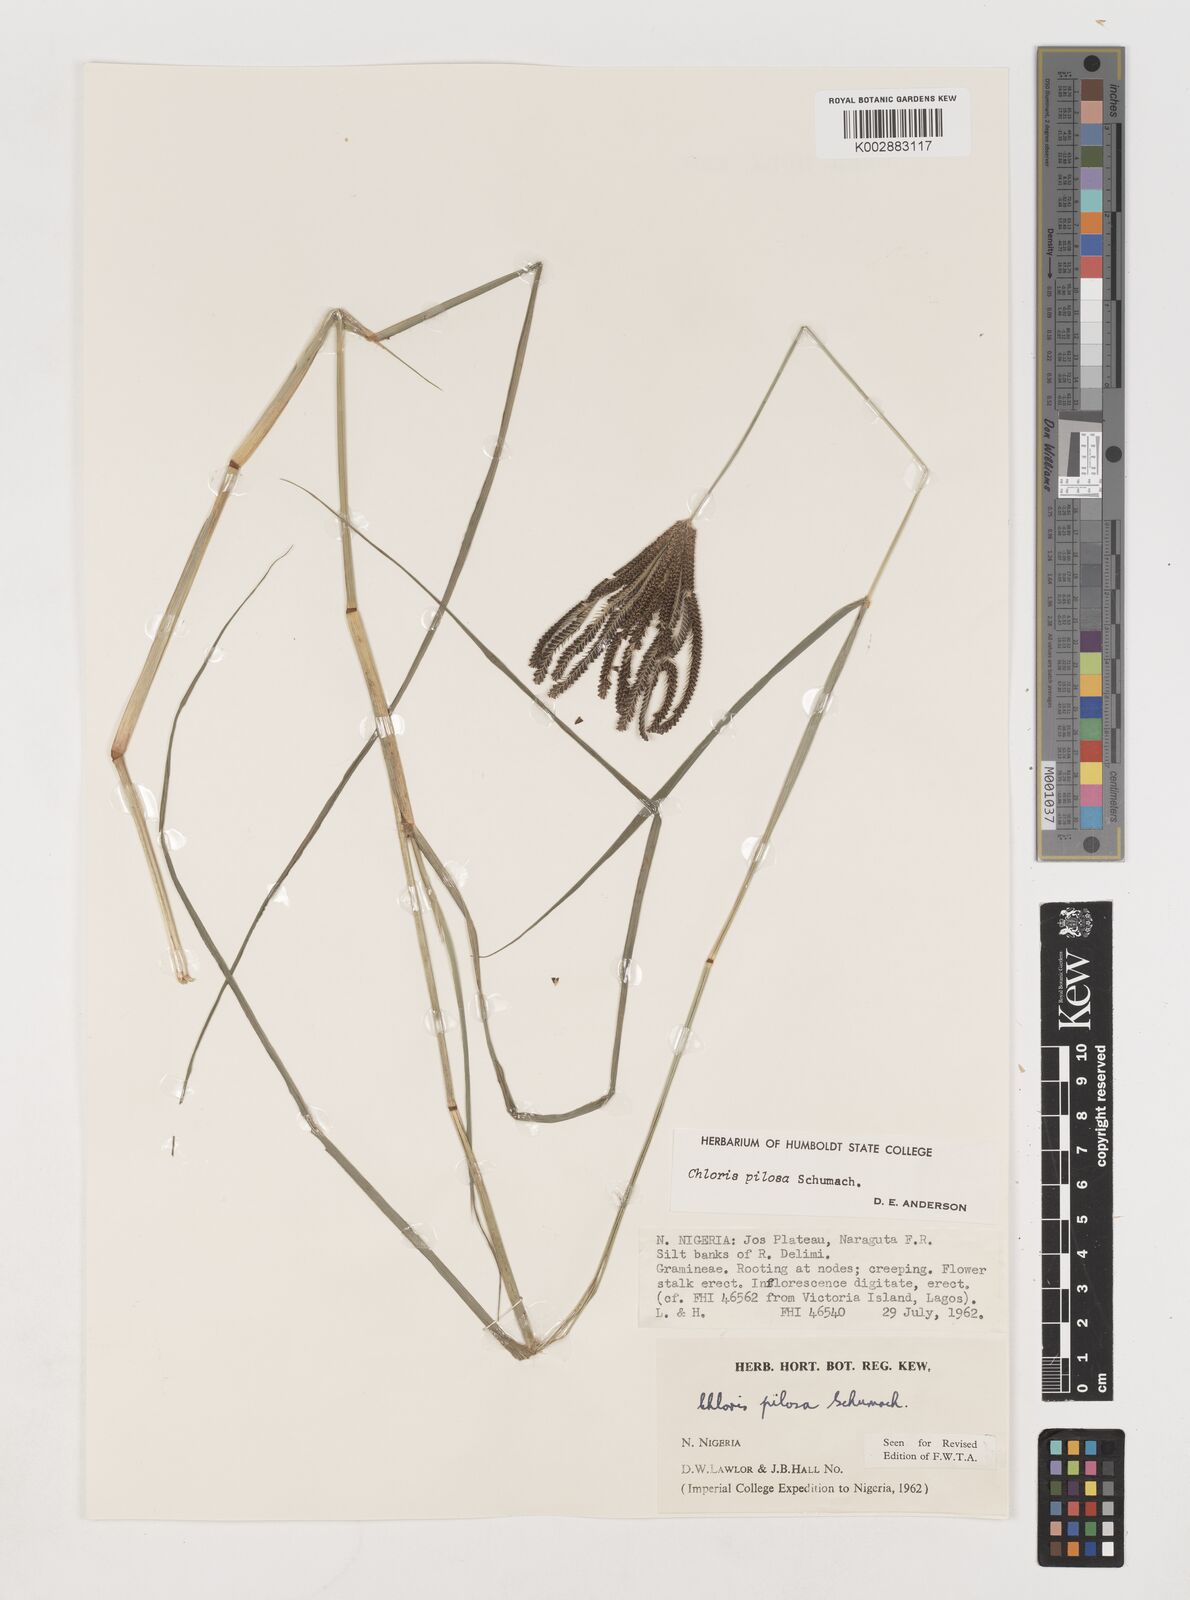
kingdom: Plantae
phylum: Tracheophyta
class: Liliopsida
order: Poales
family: Poaceae
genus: Chloris
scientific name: Chloris pilosa
